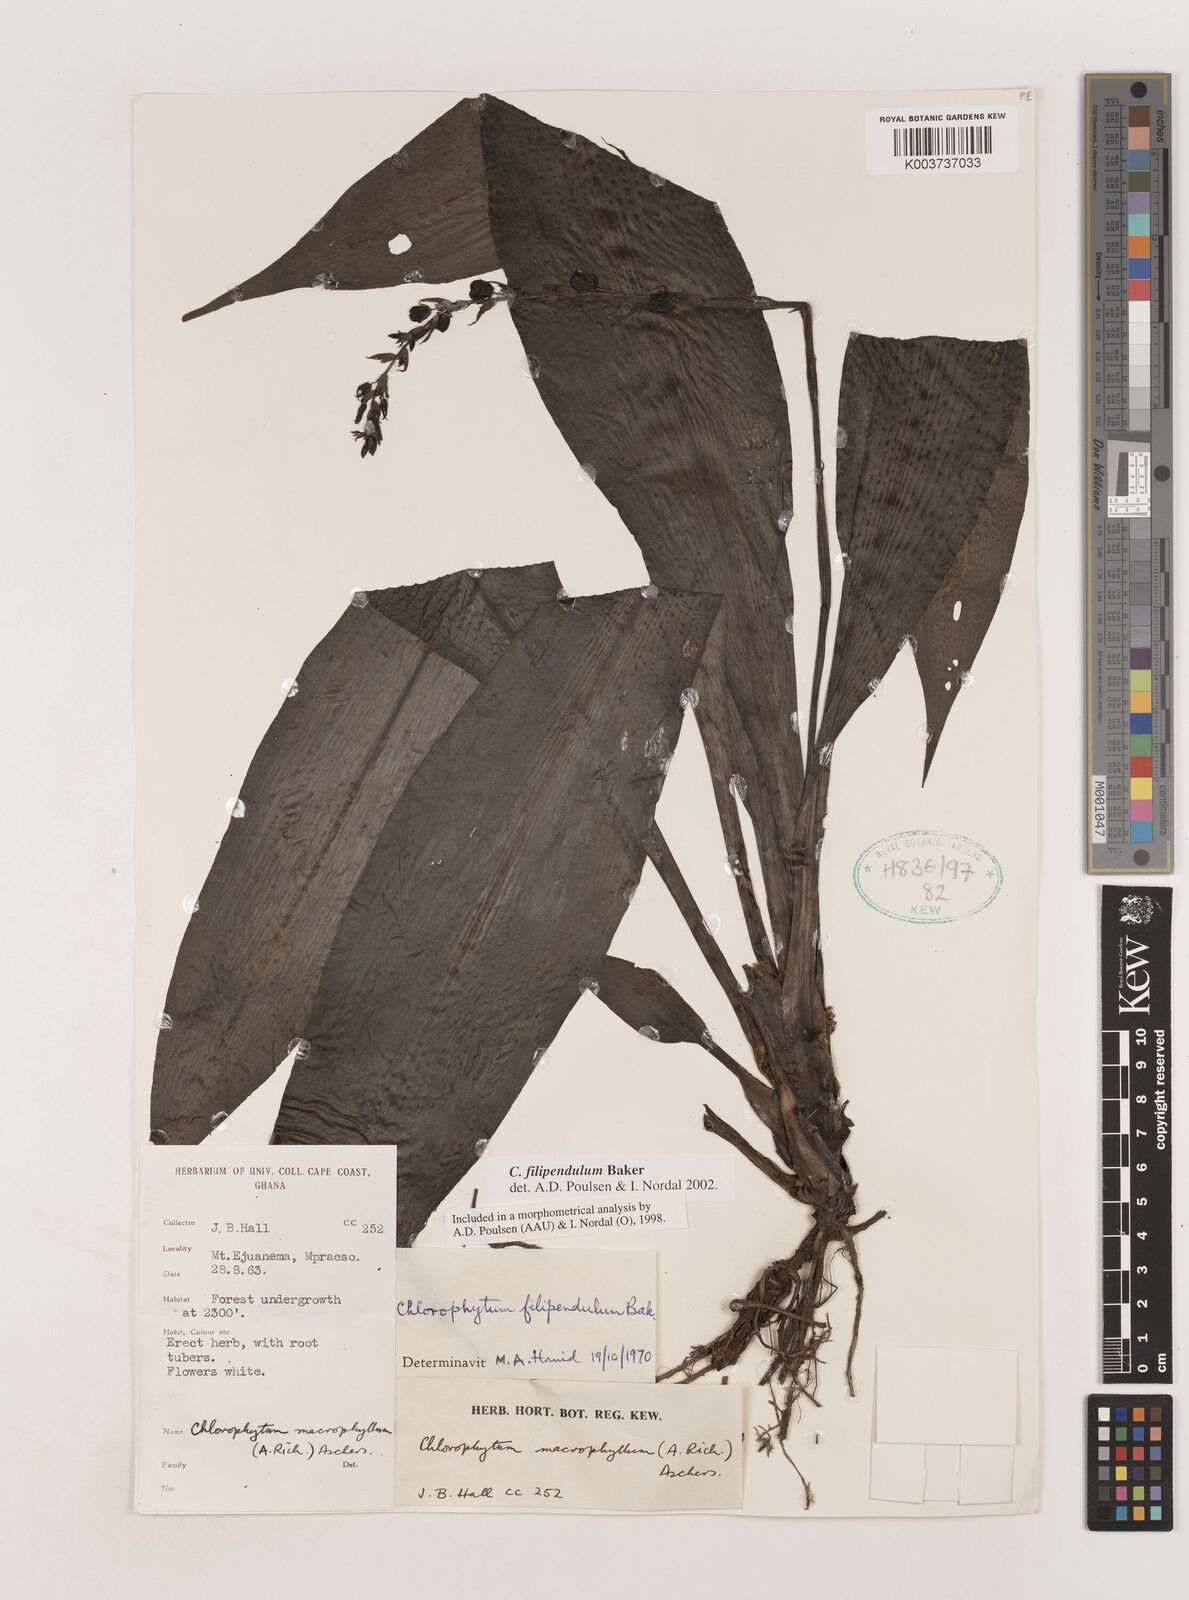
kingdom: Plantae
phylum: Tracheophyta
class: Liliopsida
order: Asparagales
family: Asparagaceae
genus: Chlorophytum
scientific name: Chlorophytum heynei
